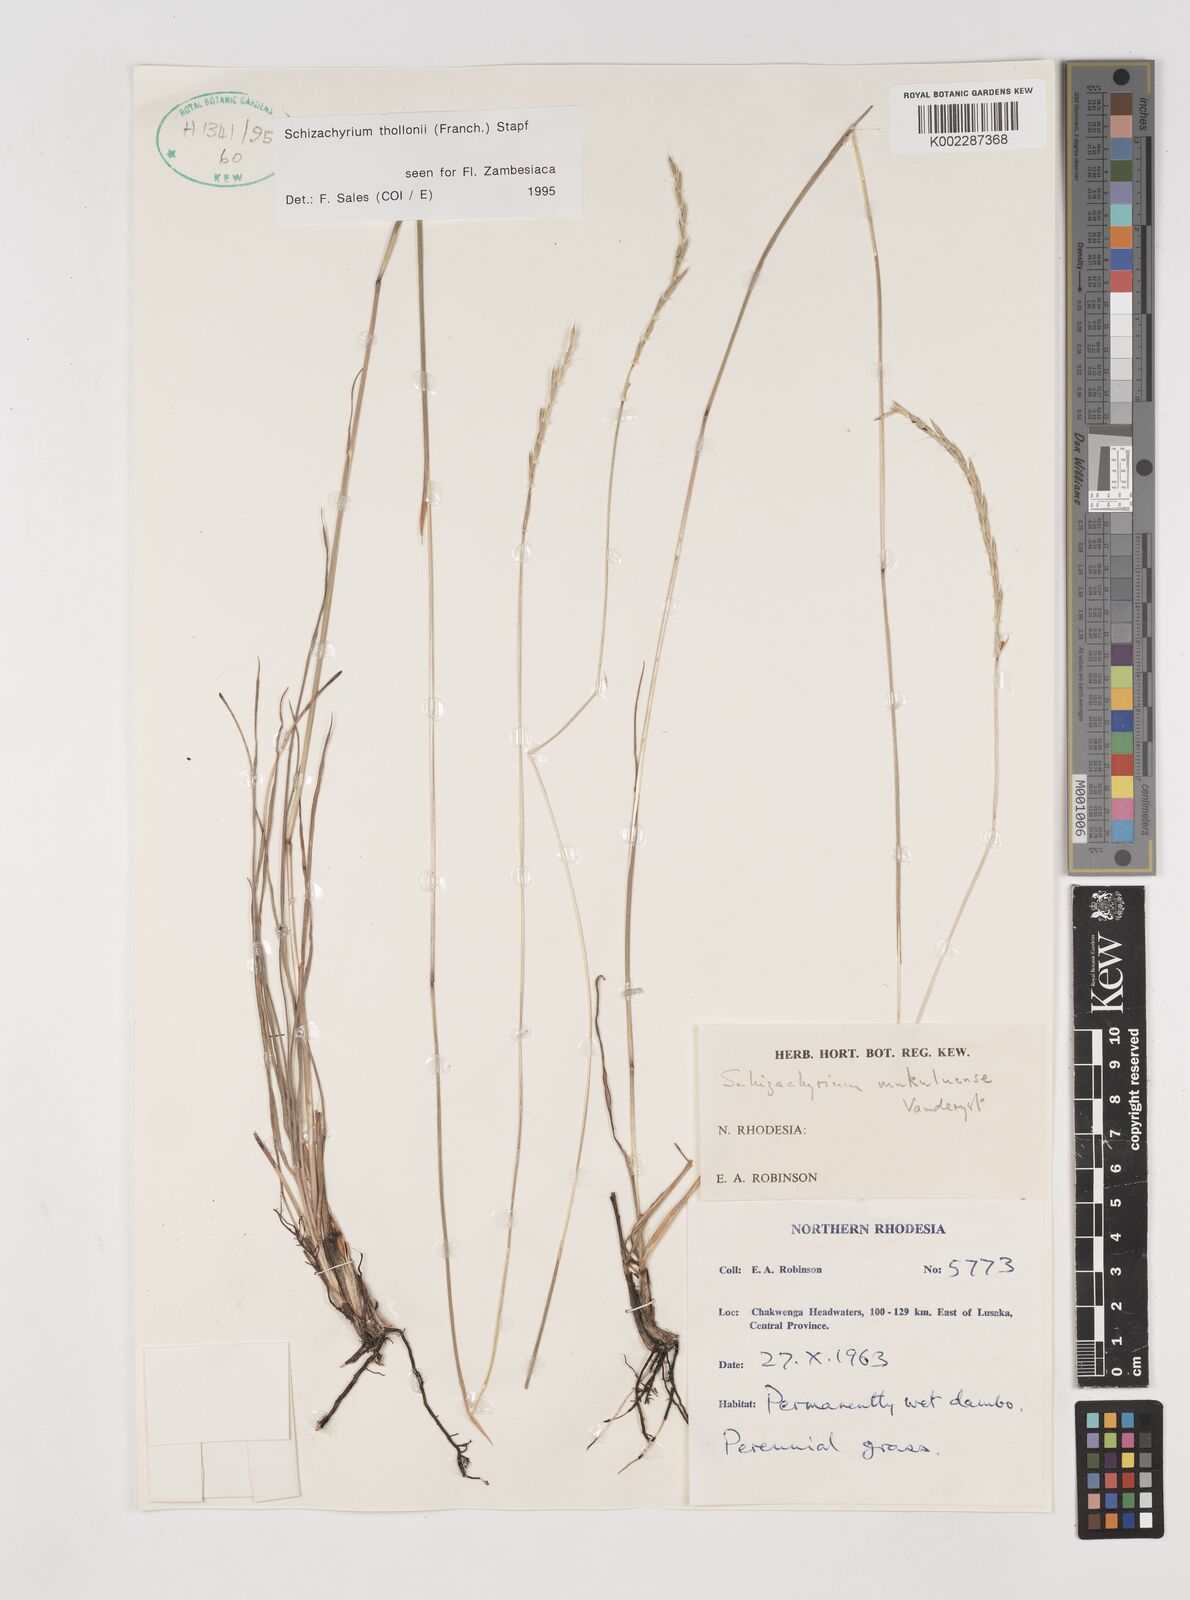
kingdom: Plantae
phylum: Tracheophyta
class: Liliopsida
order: Poales
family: Poaceae
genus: Schizachyrium
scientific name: Schizachyrium thollonii
